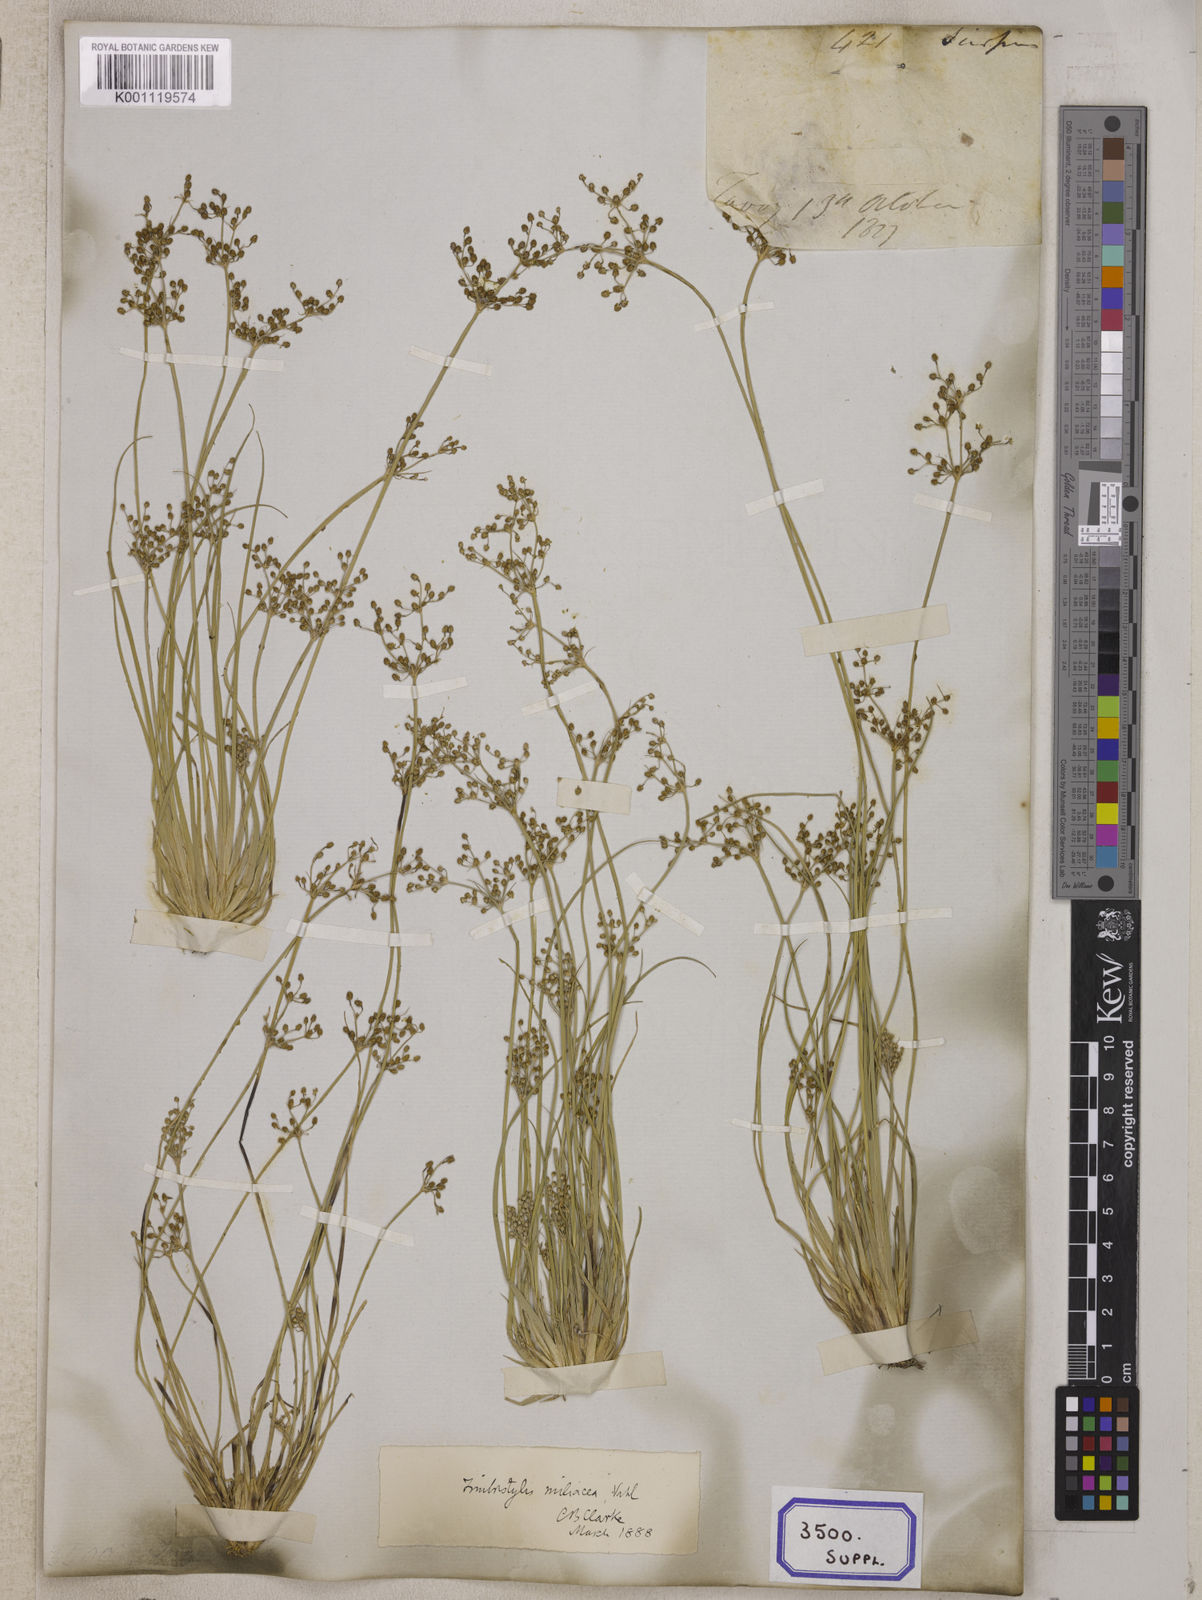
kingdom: Plantae
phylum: Tracheophyta
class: Liliopsida
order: Poales
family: Cyperaceae
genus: Fimbristylis
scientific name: Fimbristylis
